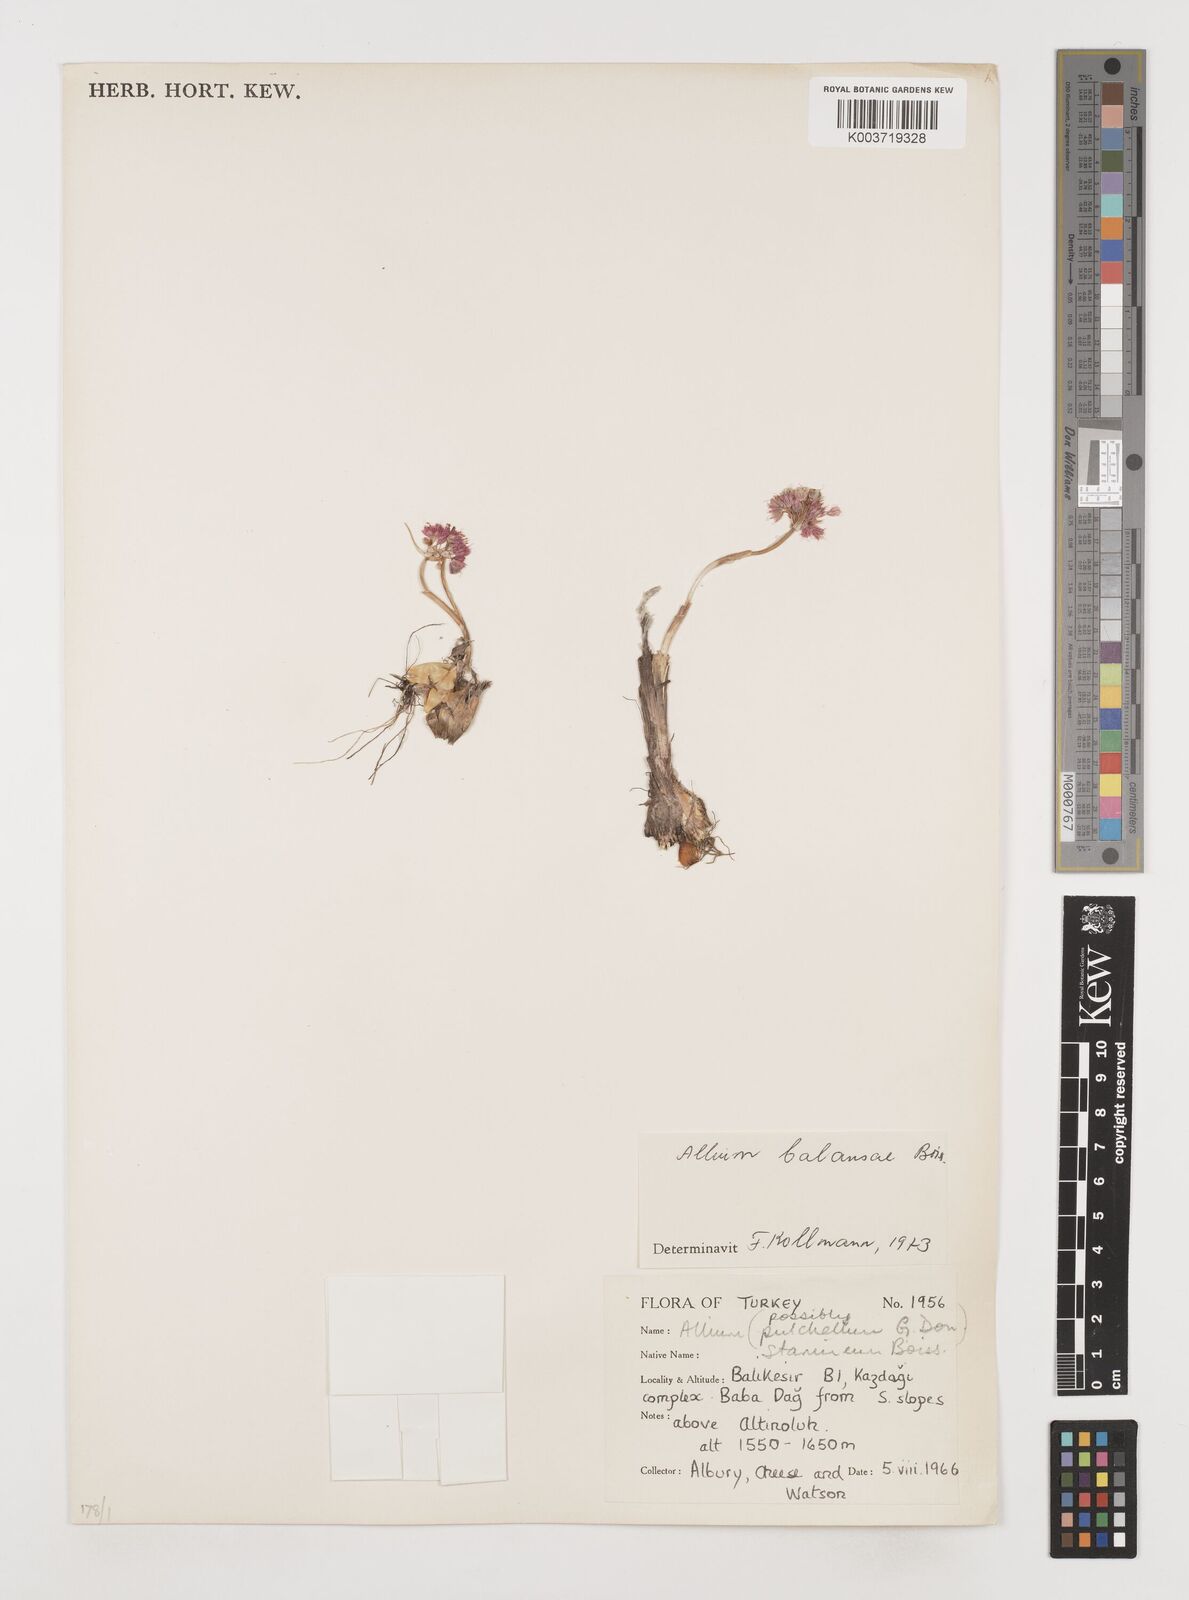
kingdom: Plantae
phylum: Tracheophyta
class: Liliopsida
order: Asparagales
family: Amaryllidaceae
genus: Allium
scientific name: Allium balansae
